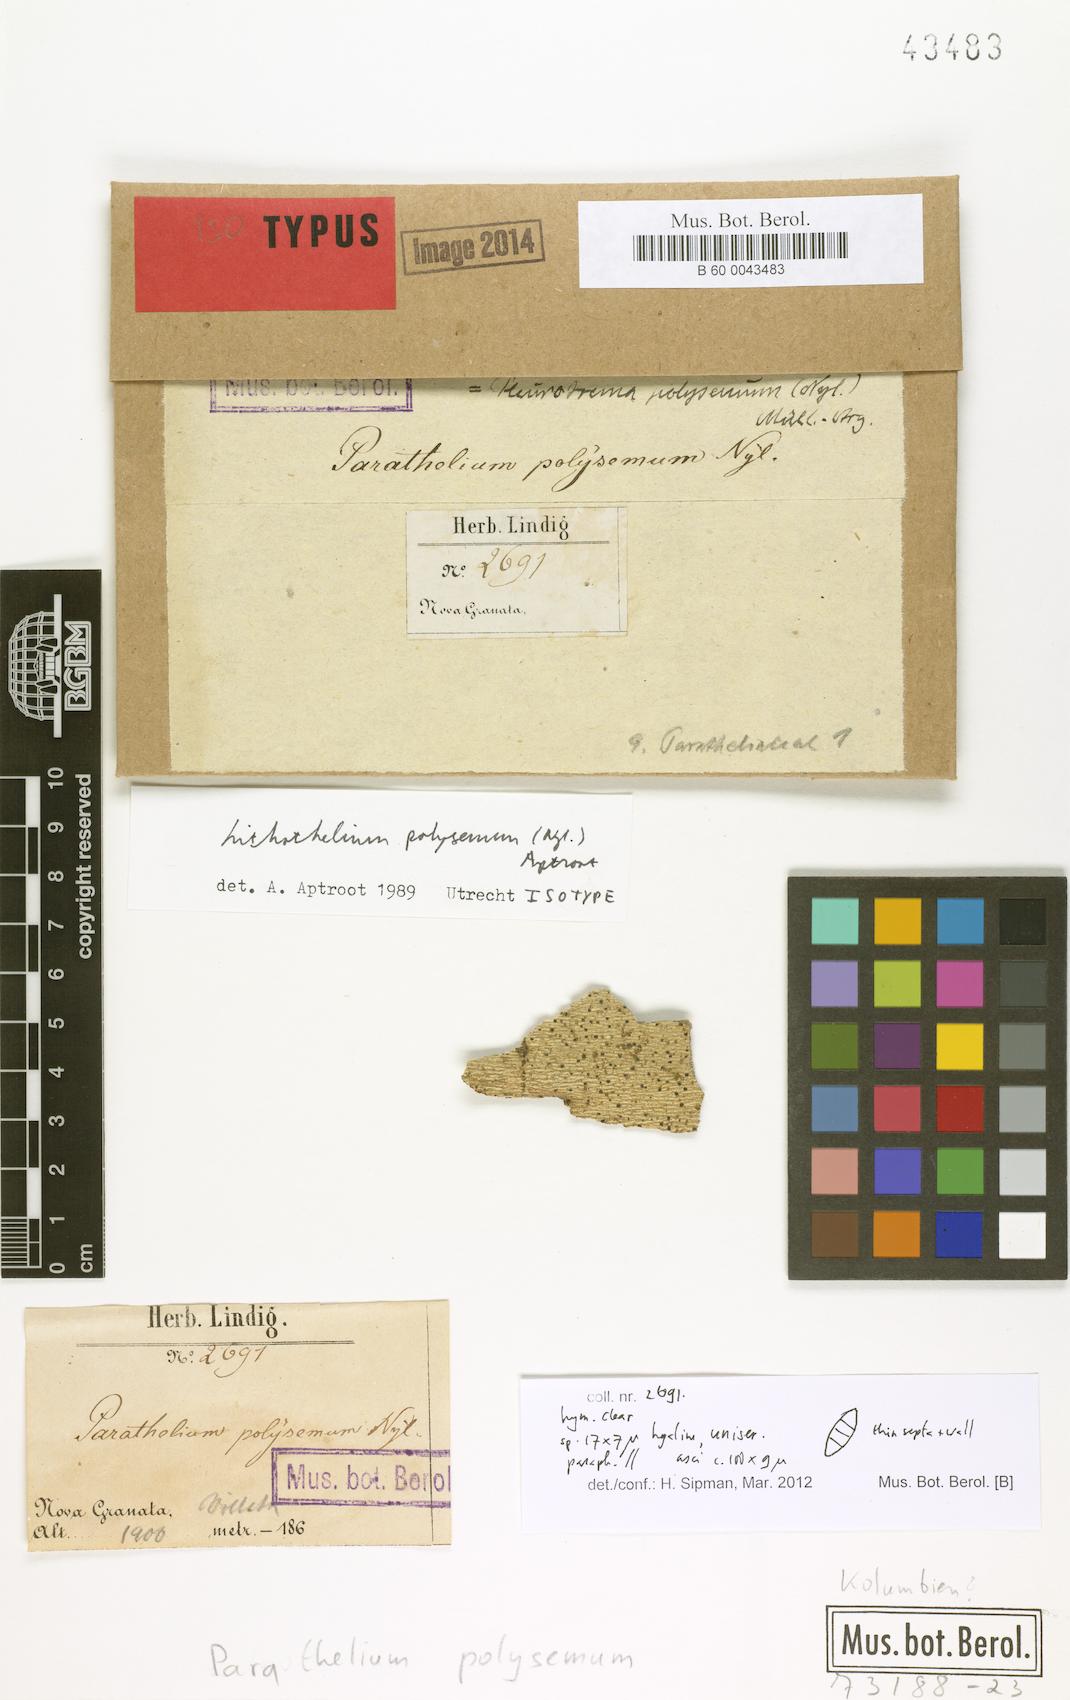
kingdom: Fungi
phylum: Ascomycota
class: Eurotiomycetes
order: Pyrenulales
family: Pyrenulaceae
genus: Lithothelium
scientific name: Lithothelium polysemum
